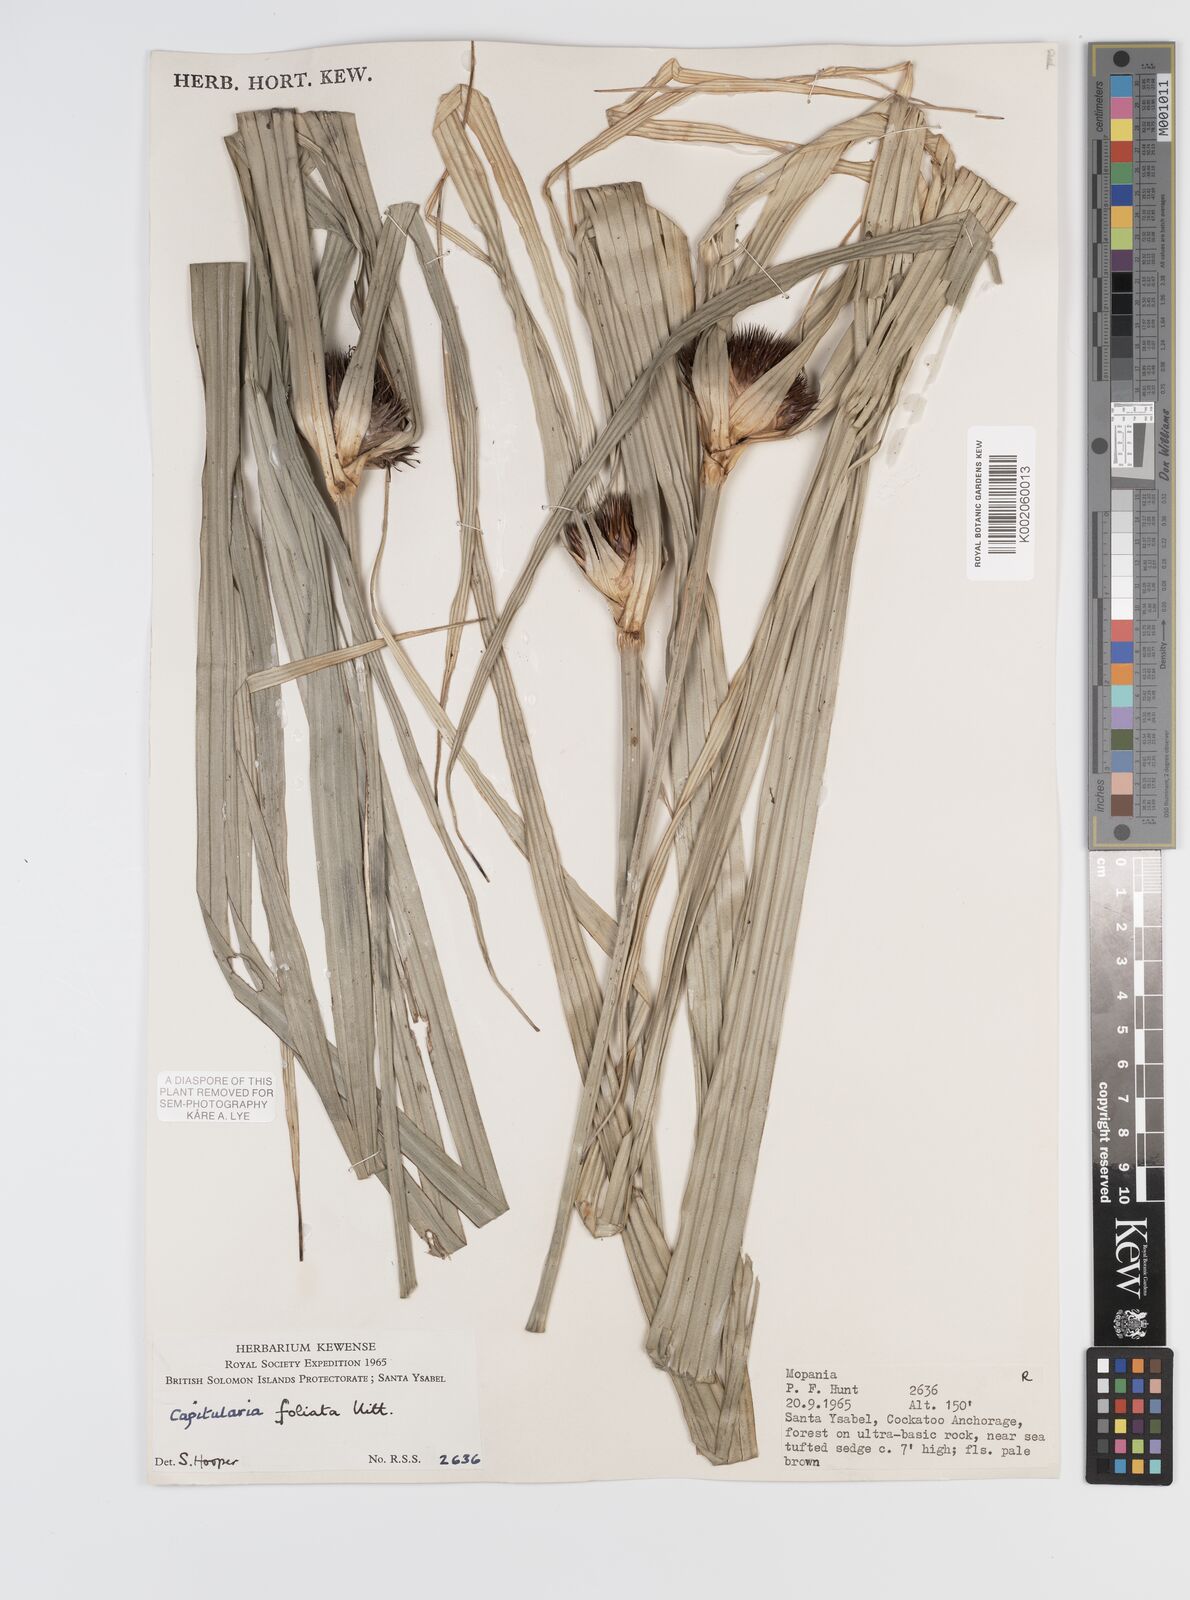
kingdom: Plantae
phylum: Tracheophyta
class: Liliopsida
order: Poales
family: Cyperaceae
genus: Capitularina
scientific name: Capitularina
